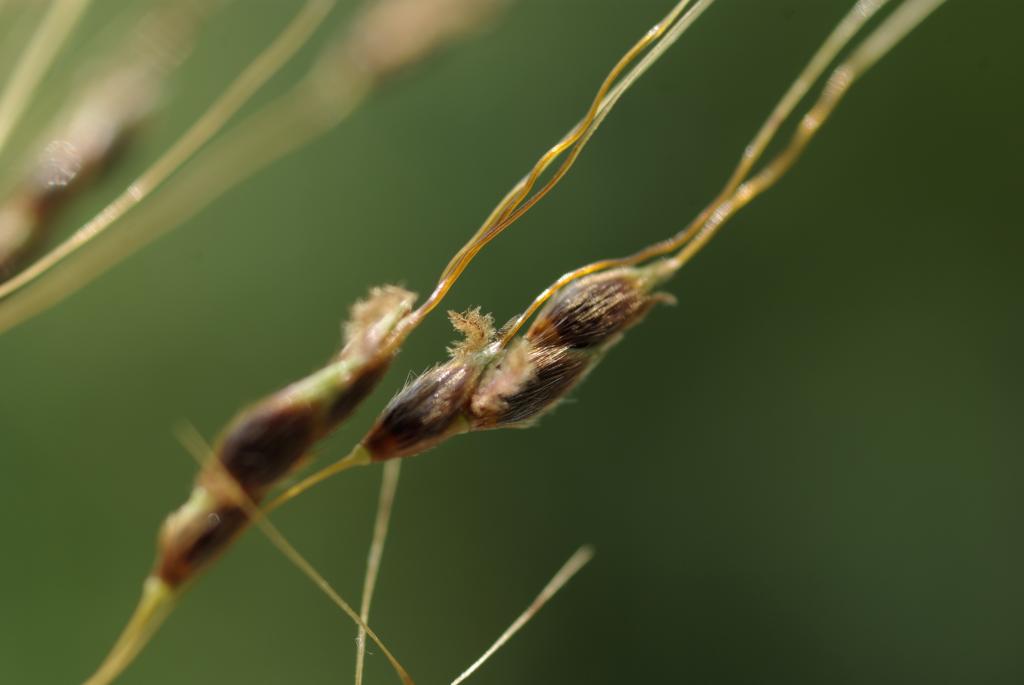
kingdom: Plantae
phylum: Tracheophyta
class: Liliopsida
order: Poales
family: Poaceae
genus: Sorghum
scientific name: Sorghum nitidum
